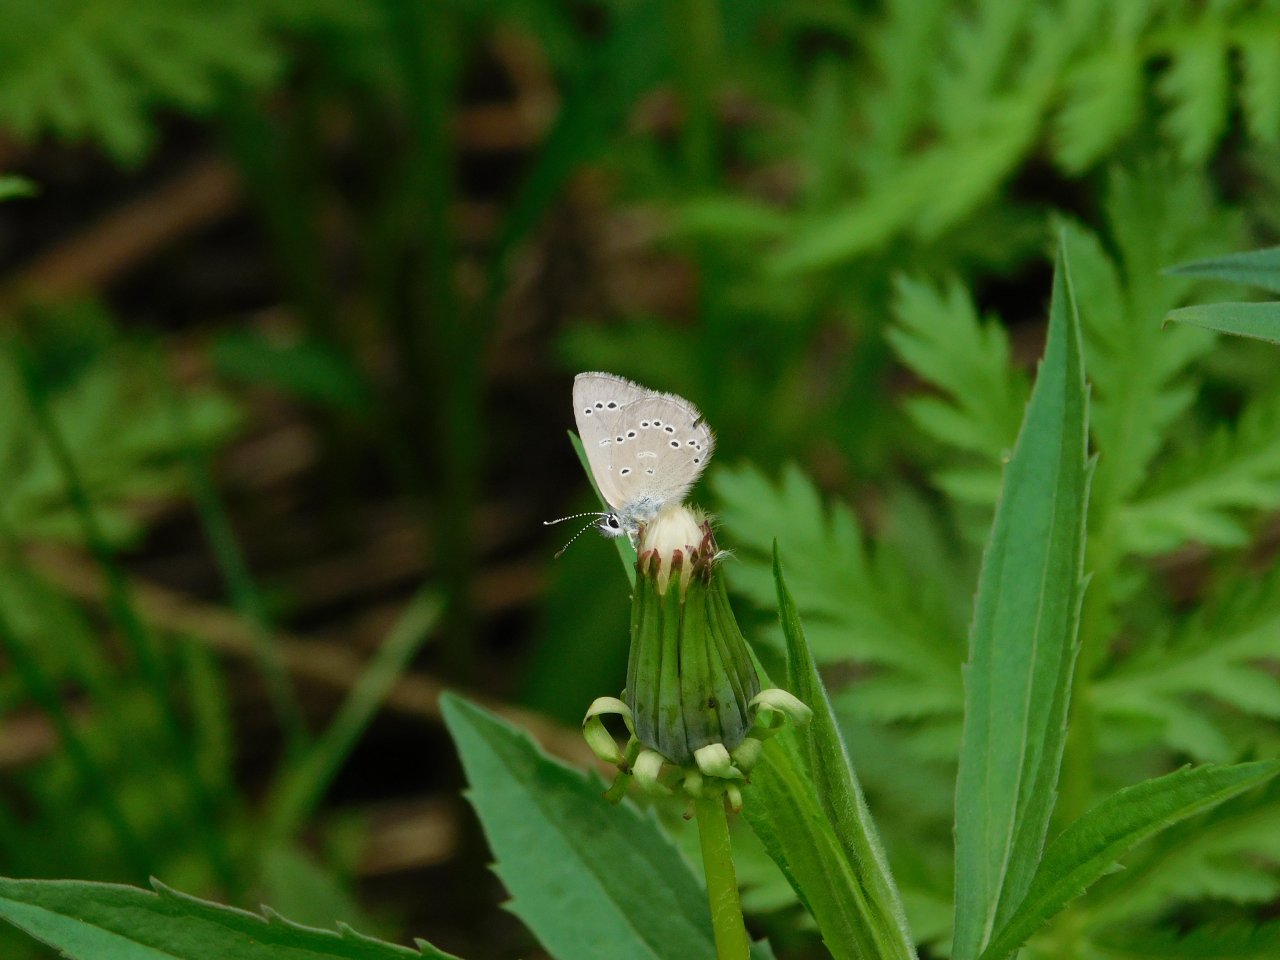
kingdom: Animalia
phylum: Arthropoda
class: Insecta
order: Lepidoptera
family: Lycaenidae
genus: Glaucopsyche
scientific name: Glaucopsyche lygdamus
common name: Silvery Blue
